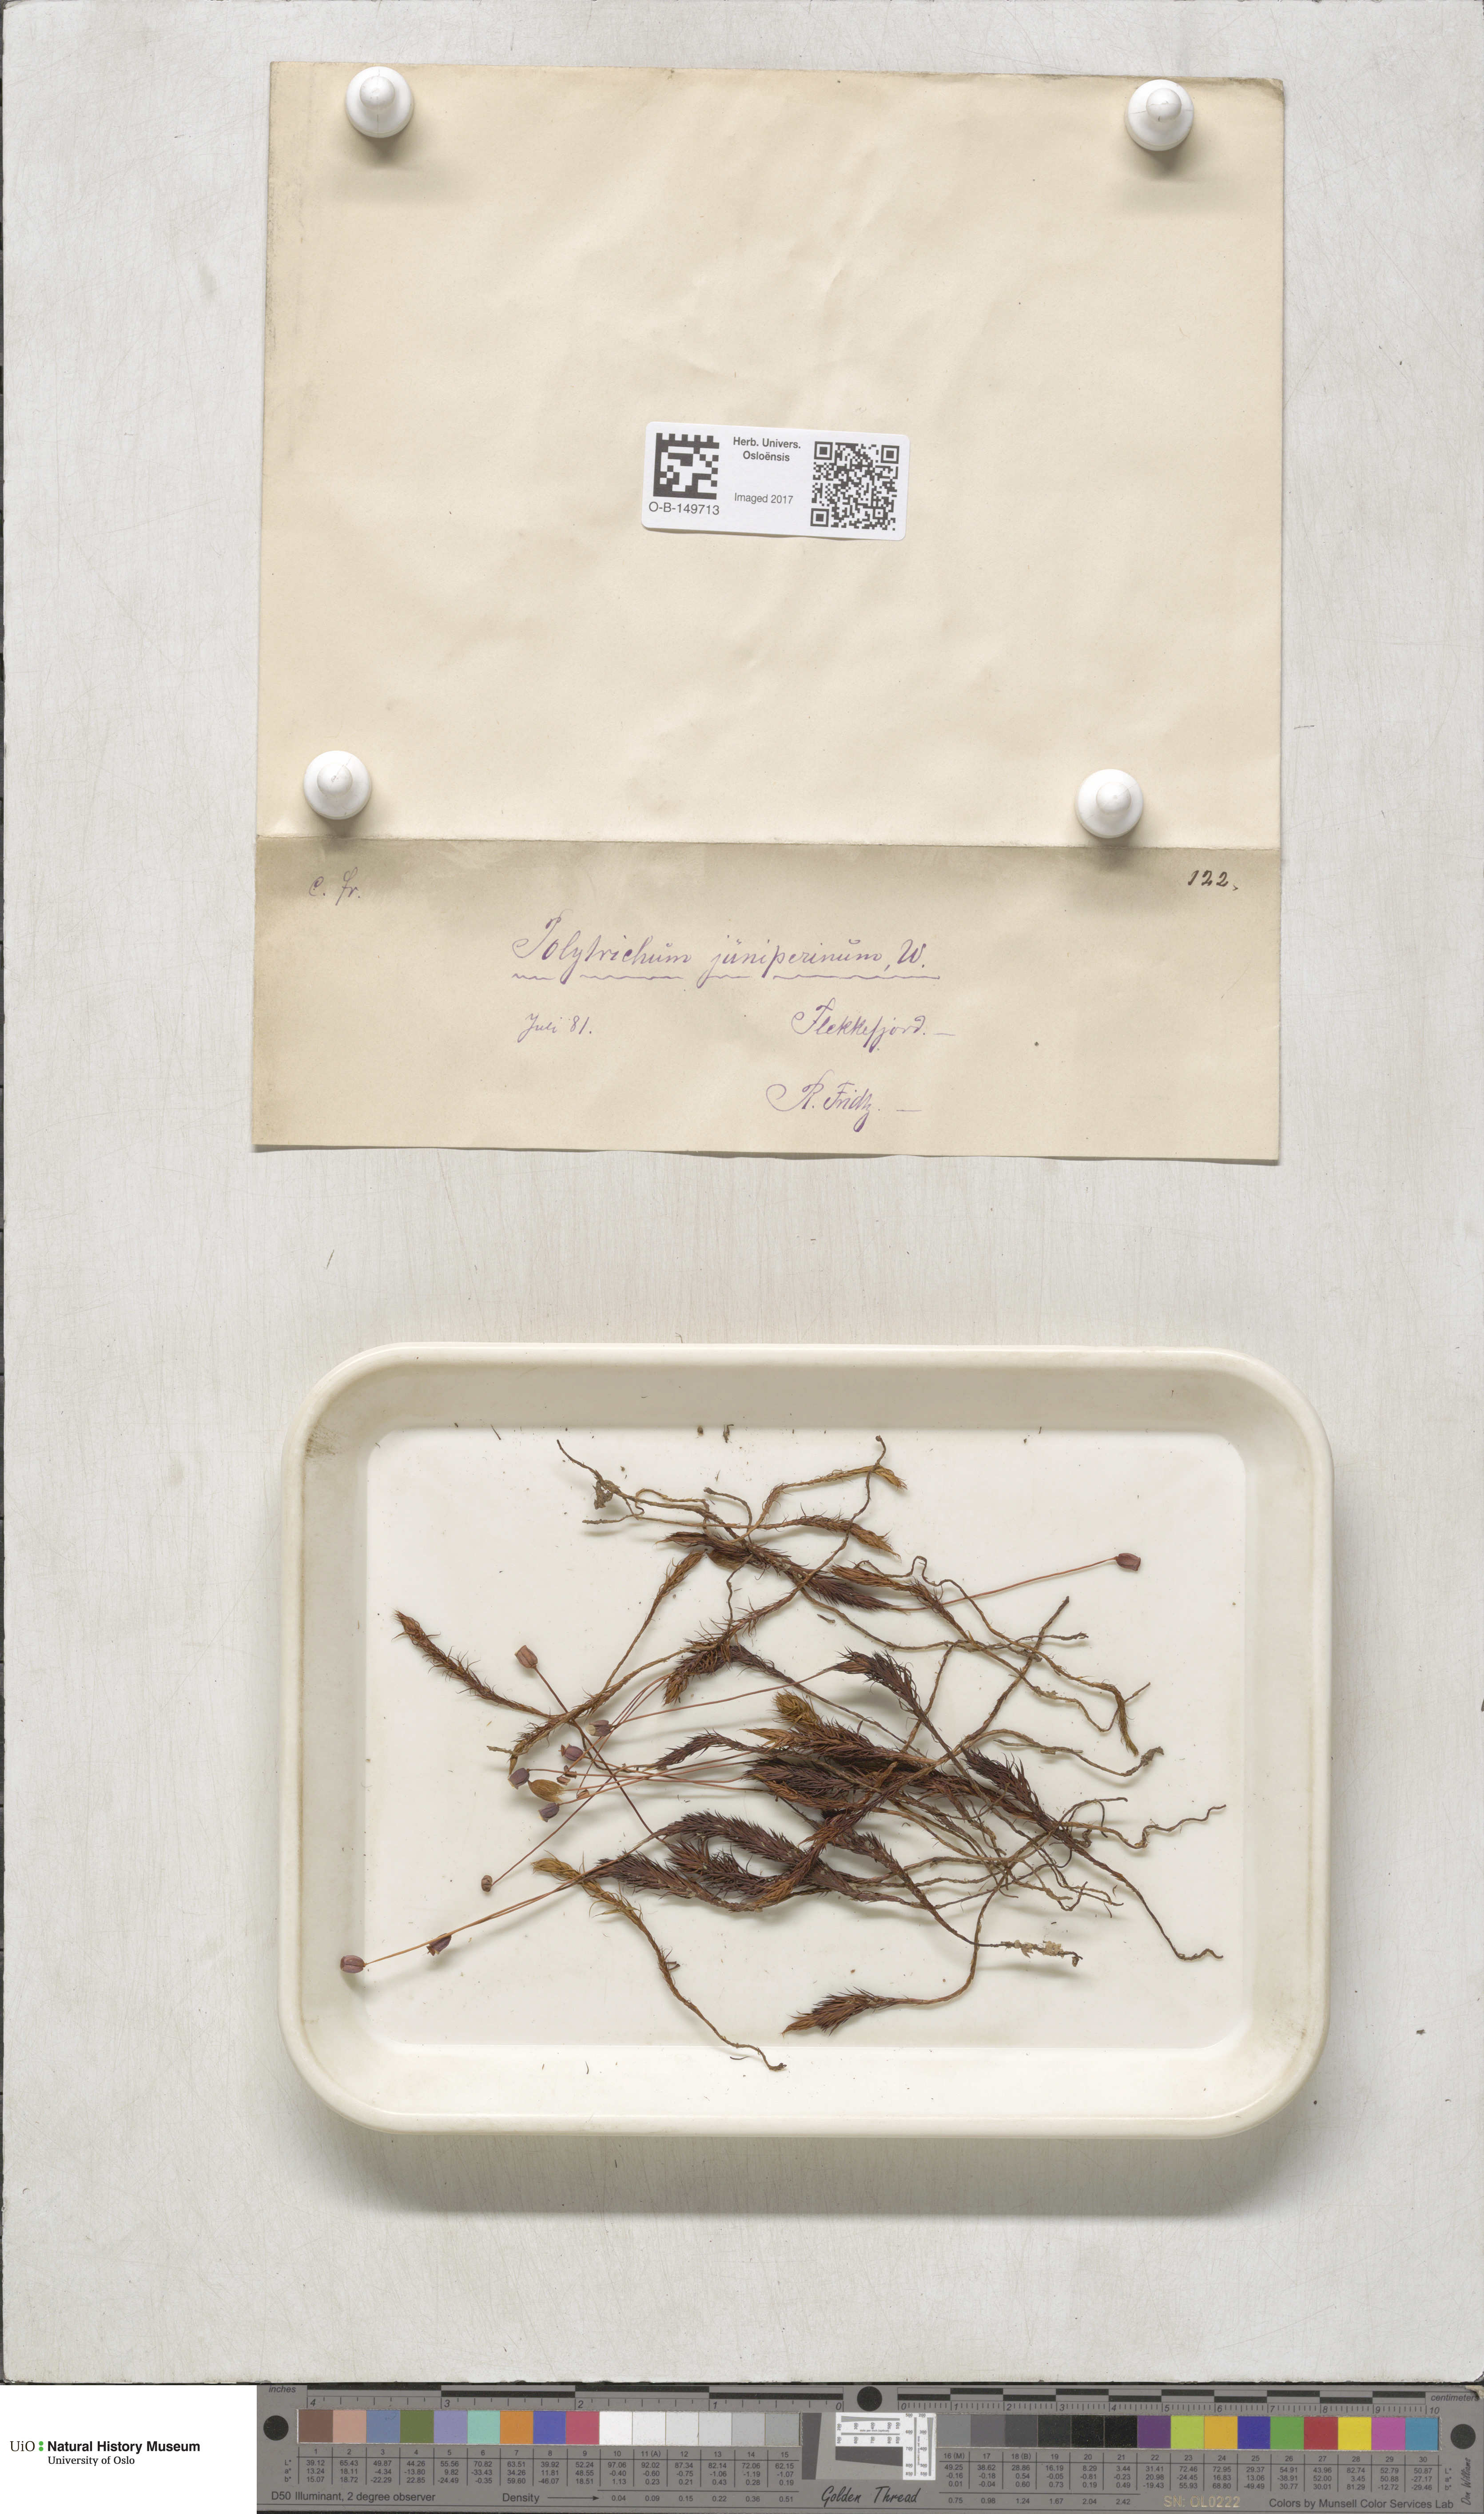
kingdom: Plantae
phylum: Bryophyta
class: Polytrichopsida
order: Polytrichales
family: Polytrichaceae
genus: Polytrichum
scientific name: Polytrichum juniperinum
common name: Juniper haircap moss
